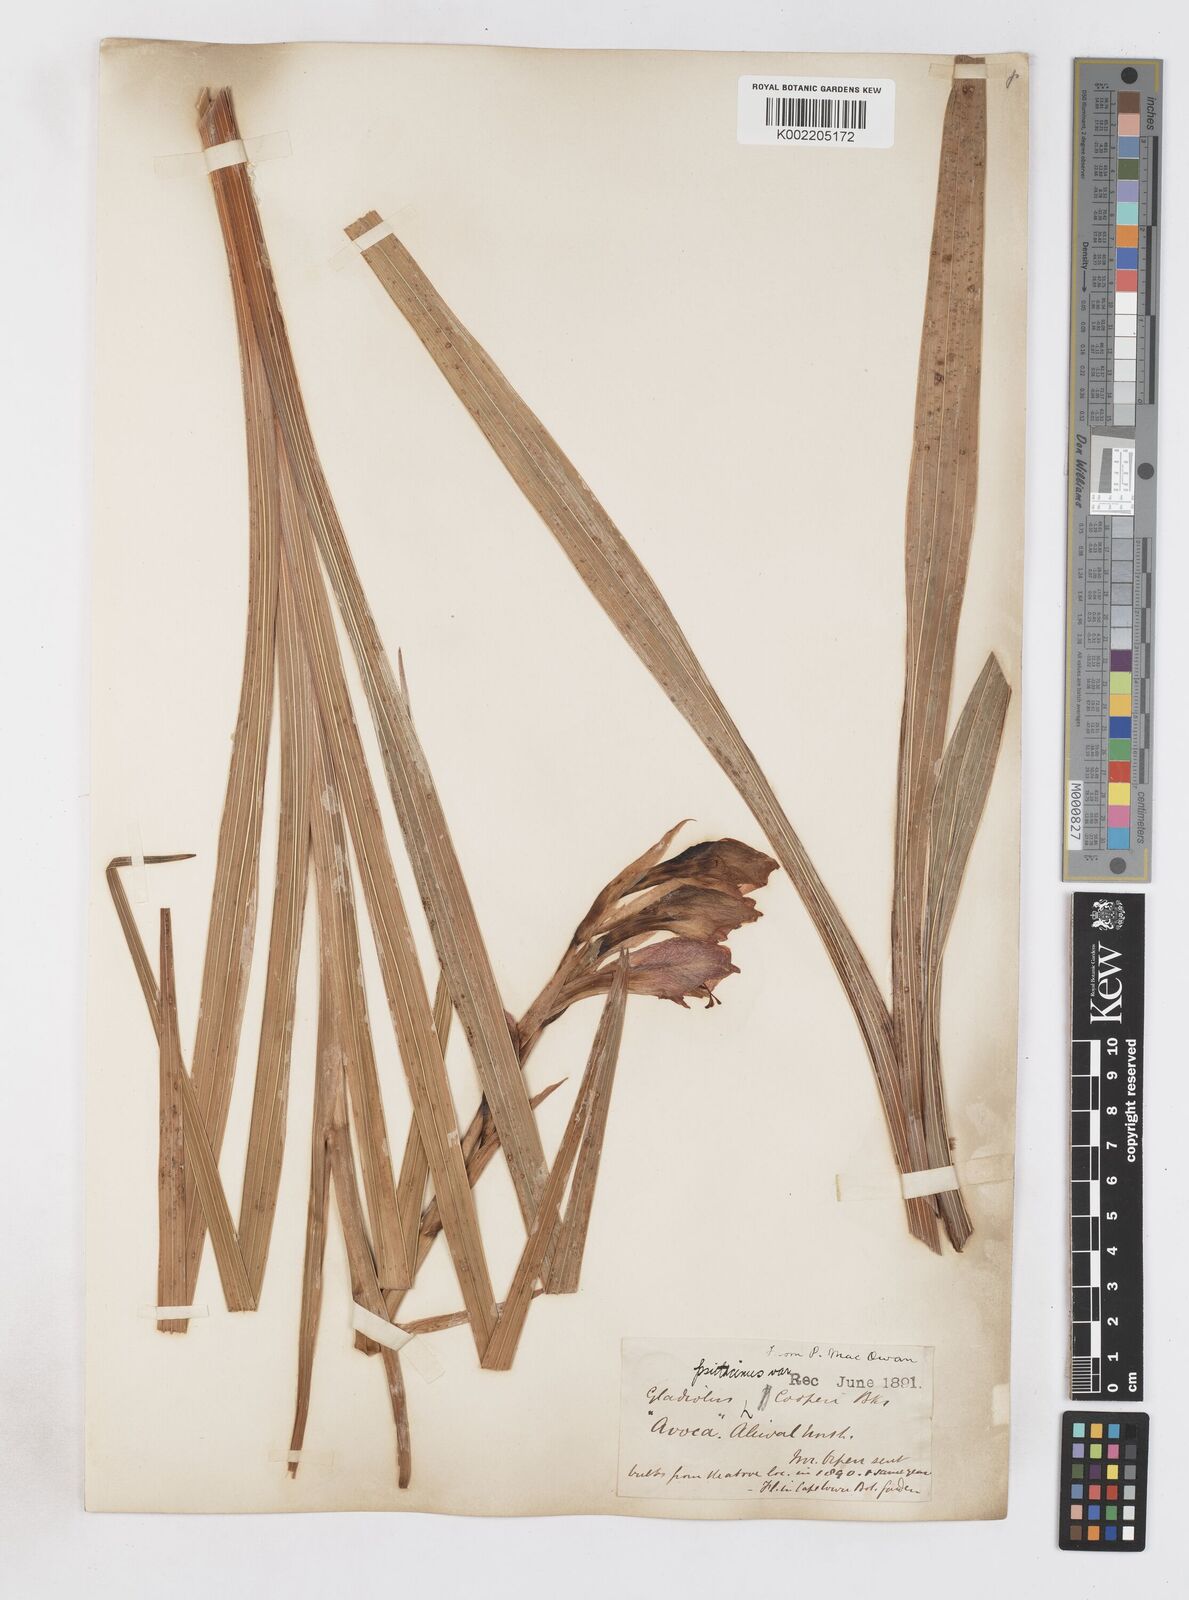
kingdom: Plantae
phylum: Tracheophyta
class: Liliopsida
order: Asparagales
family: Iridaceae
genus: Gladiolus
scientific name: Gladiolus dalenii
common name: Cornflag
